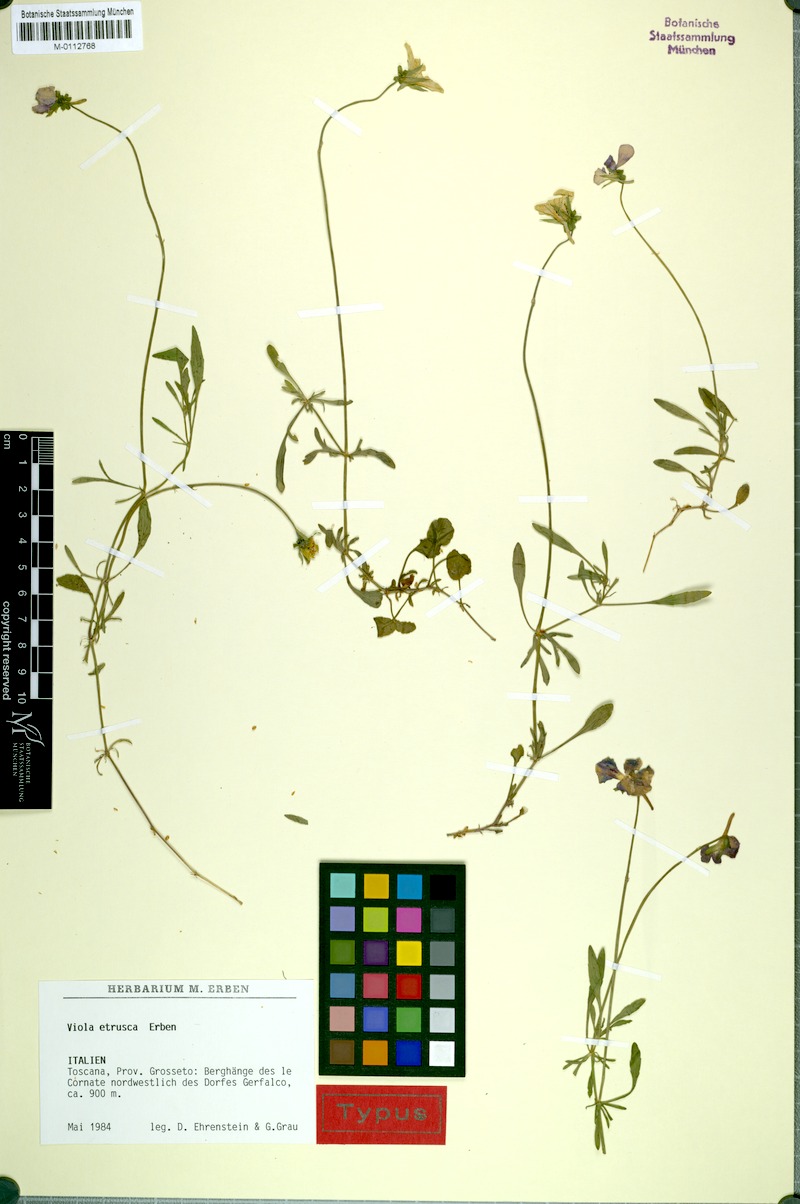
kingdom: Plantae
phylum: Tracheophyta
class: Magnoliopsida
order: Malpighiales
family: Violaceae
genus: Viola
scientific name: Viola etrusca
